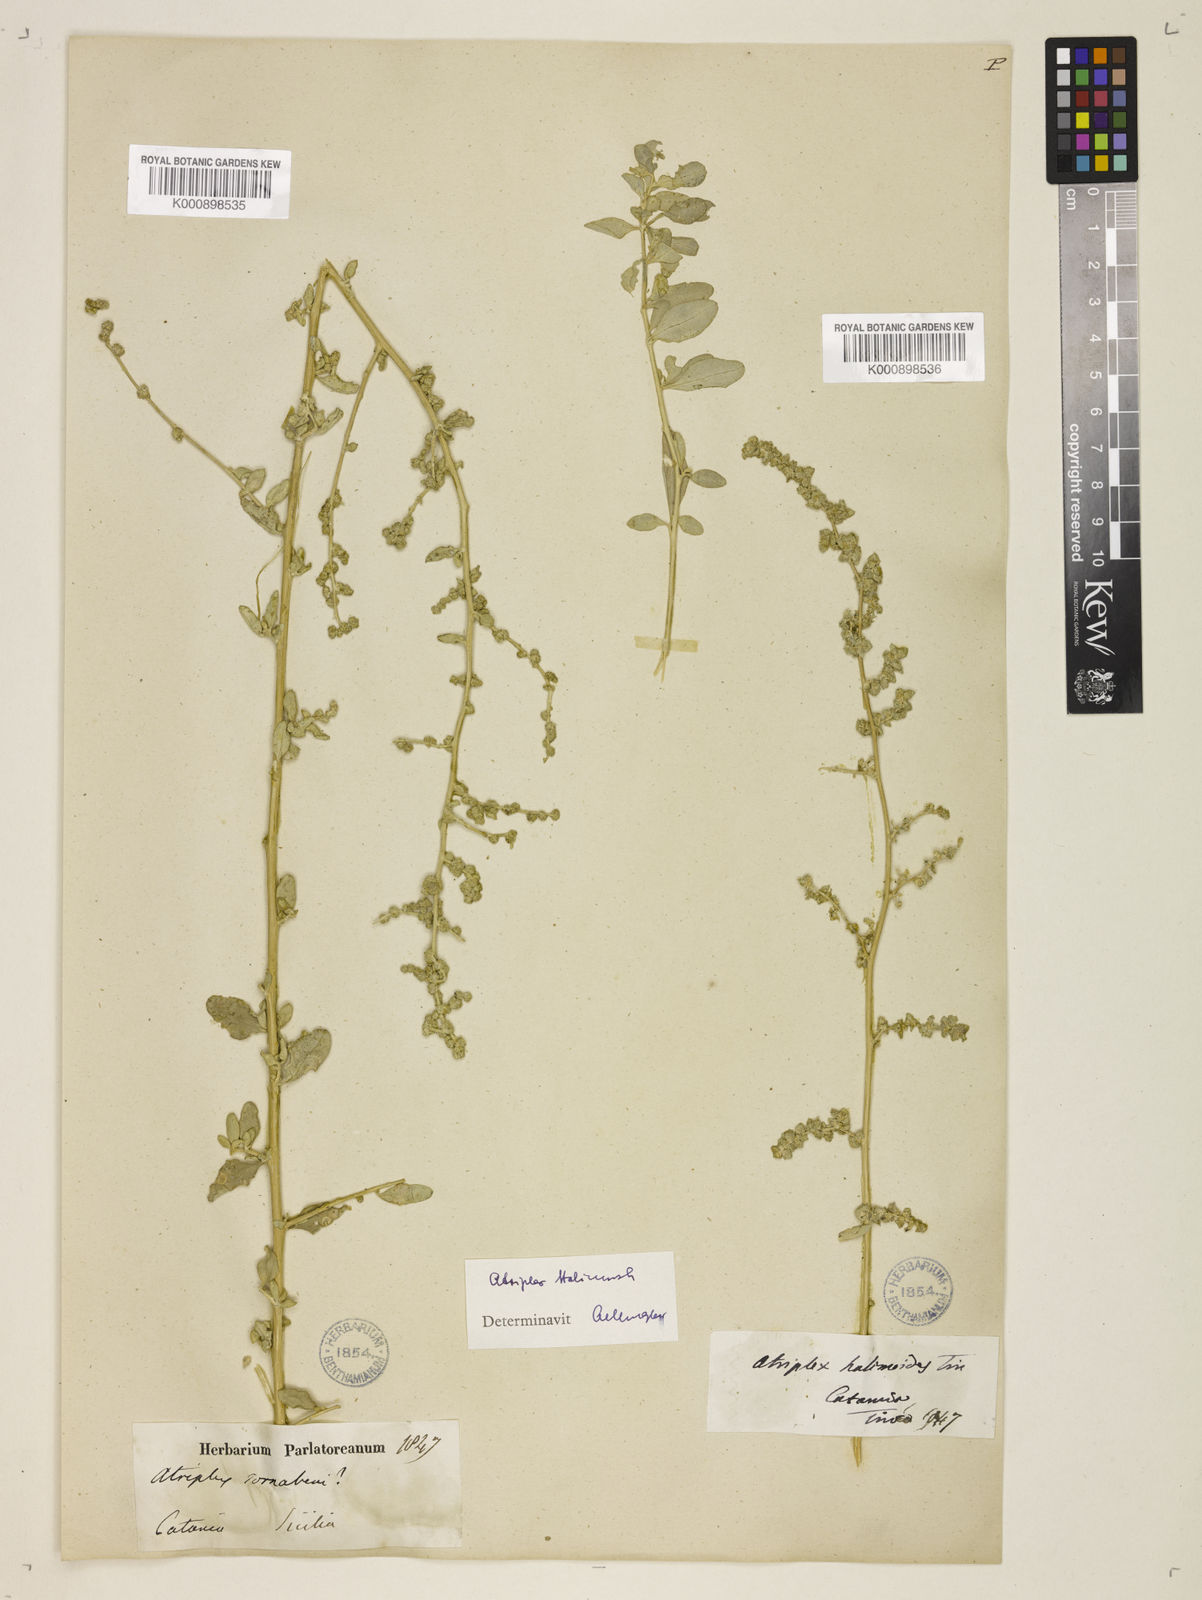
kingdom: Plantae
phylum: Tracheophyta
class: Magnoliopsida
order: Caryophyllales
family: Amaranthaceae
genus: Atriplex
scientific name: Atriplex
